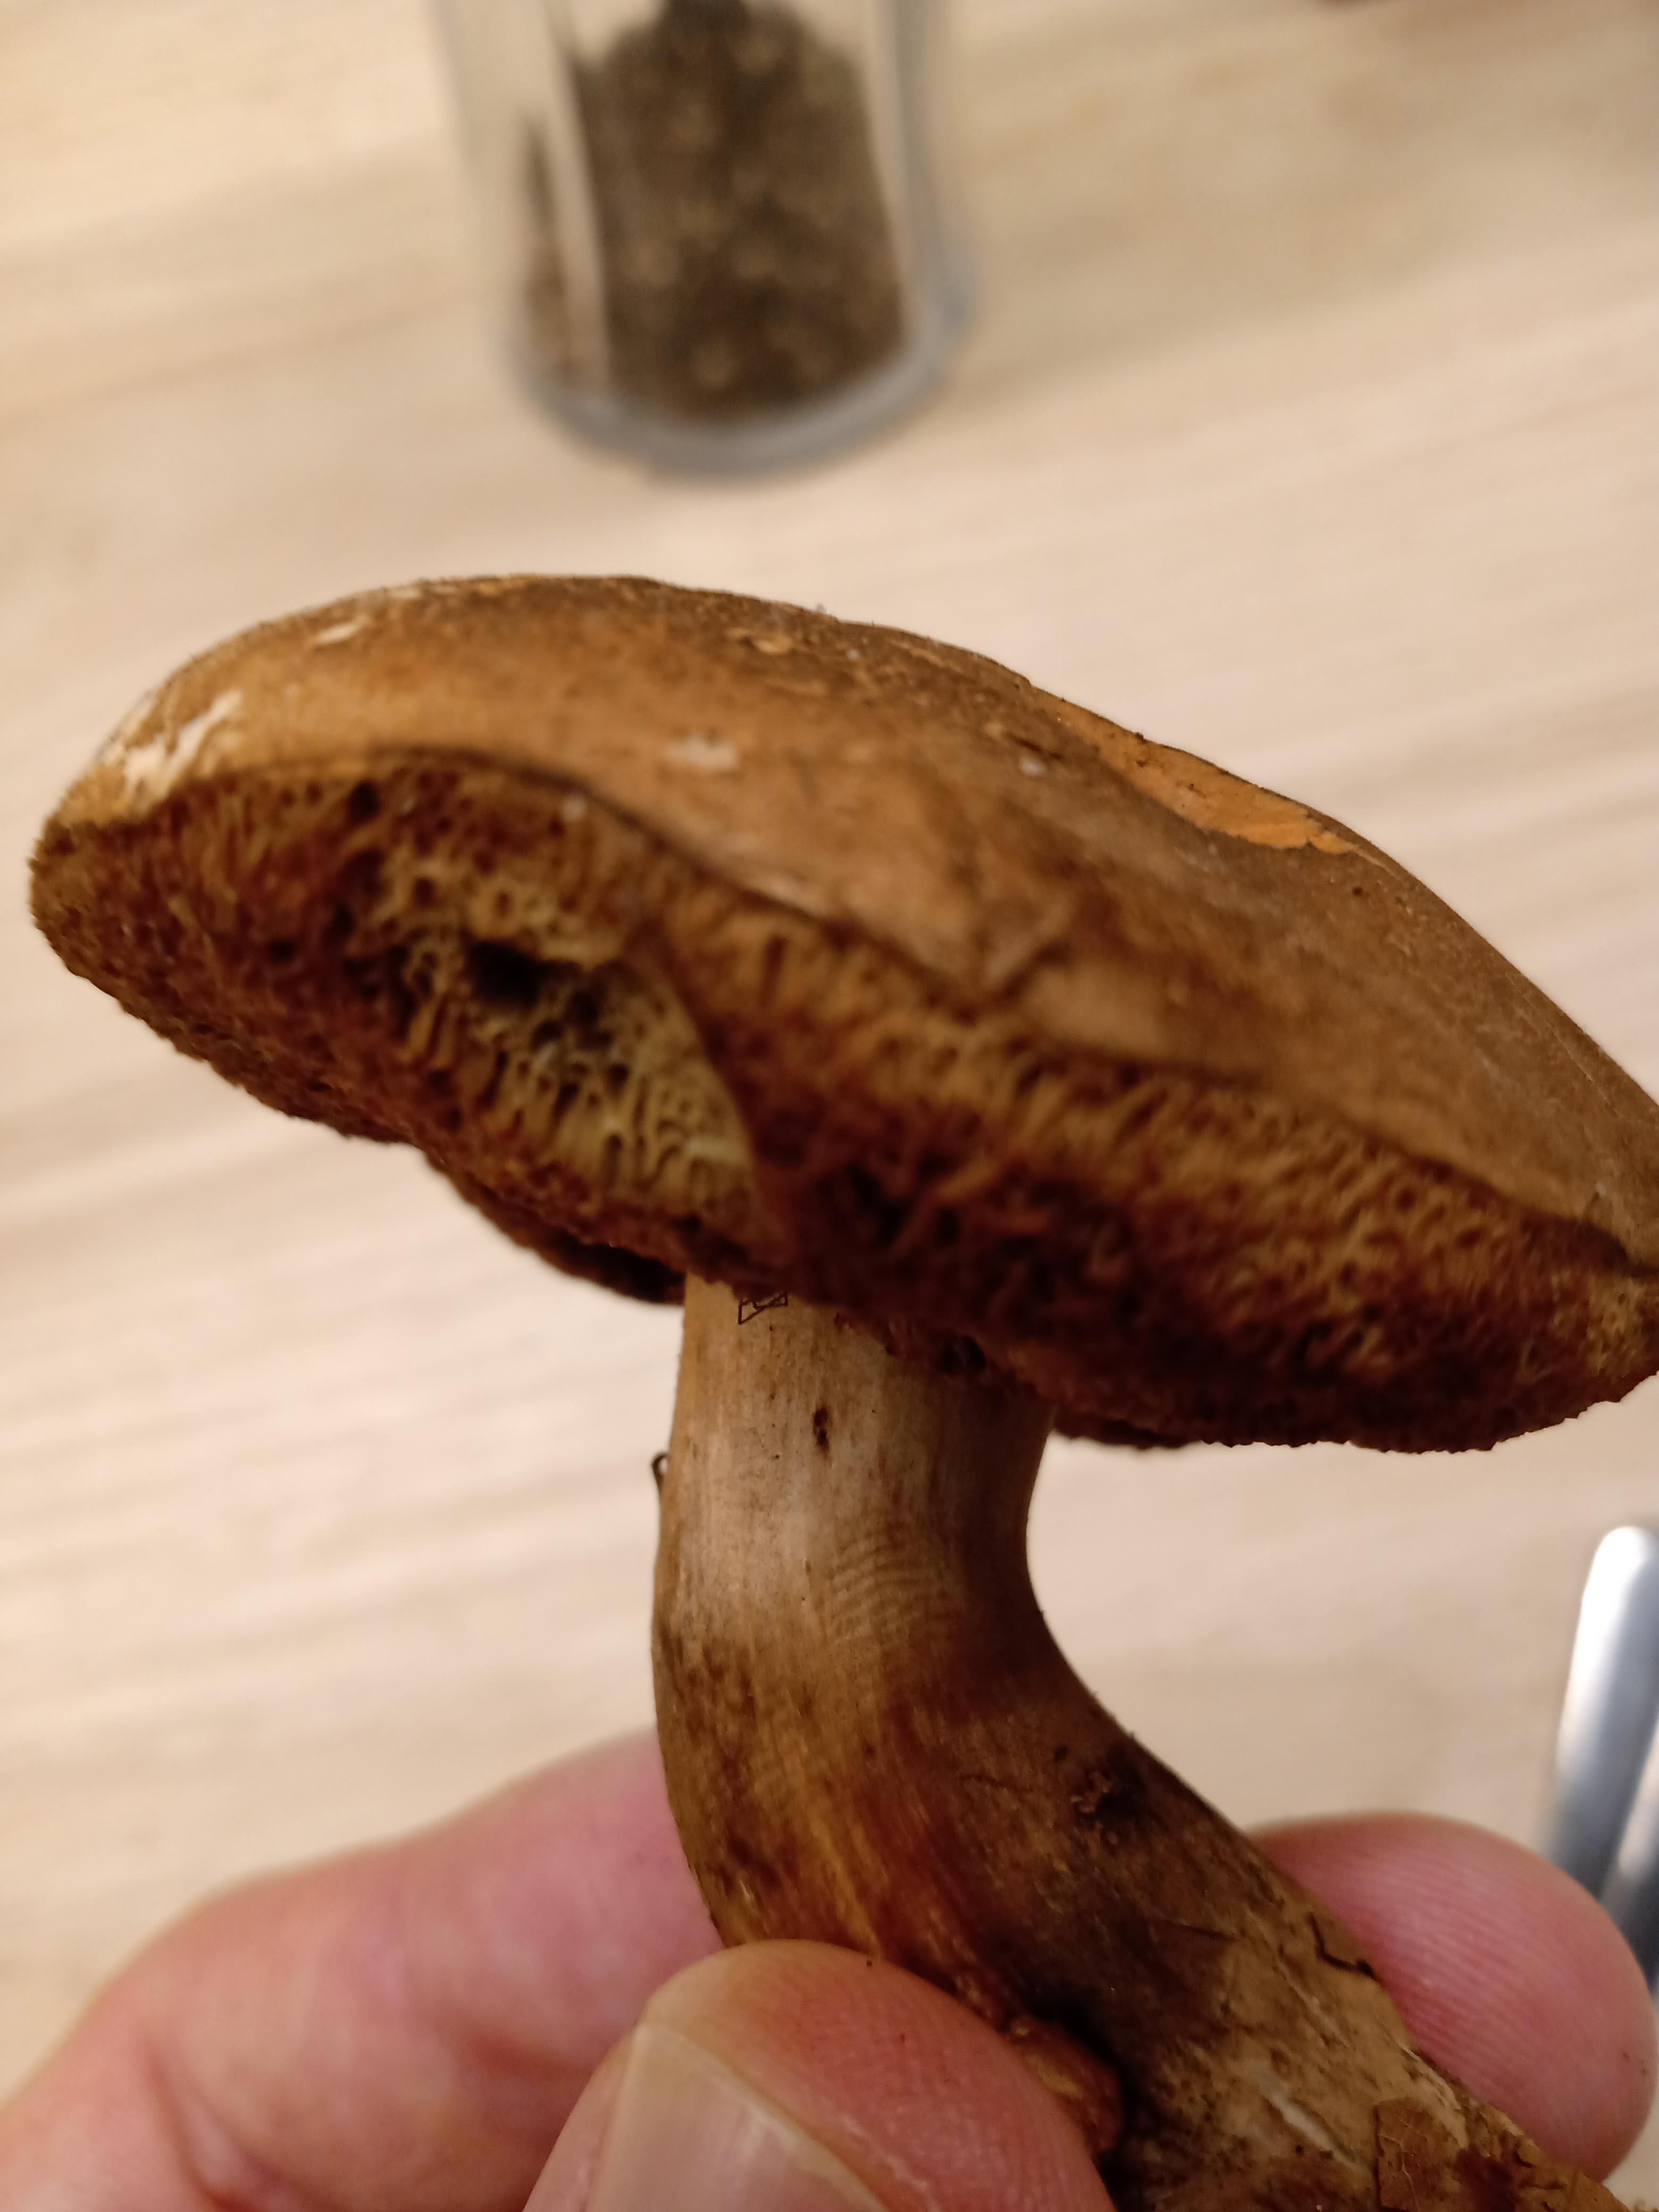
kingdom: Fungi
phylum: Basidiomycota
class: Agaricomycetes
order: Boletales
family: Boletaceae
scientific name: Boletaceae
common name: rørhatfamilien
